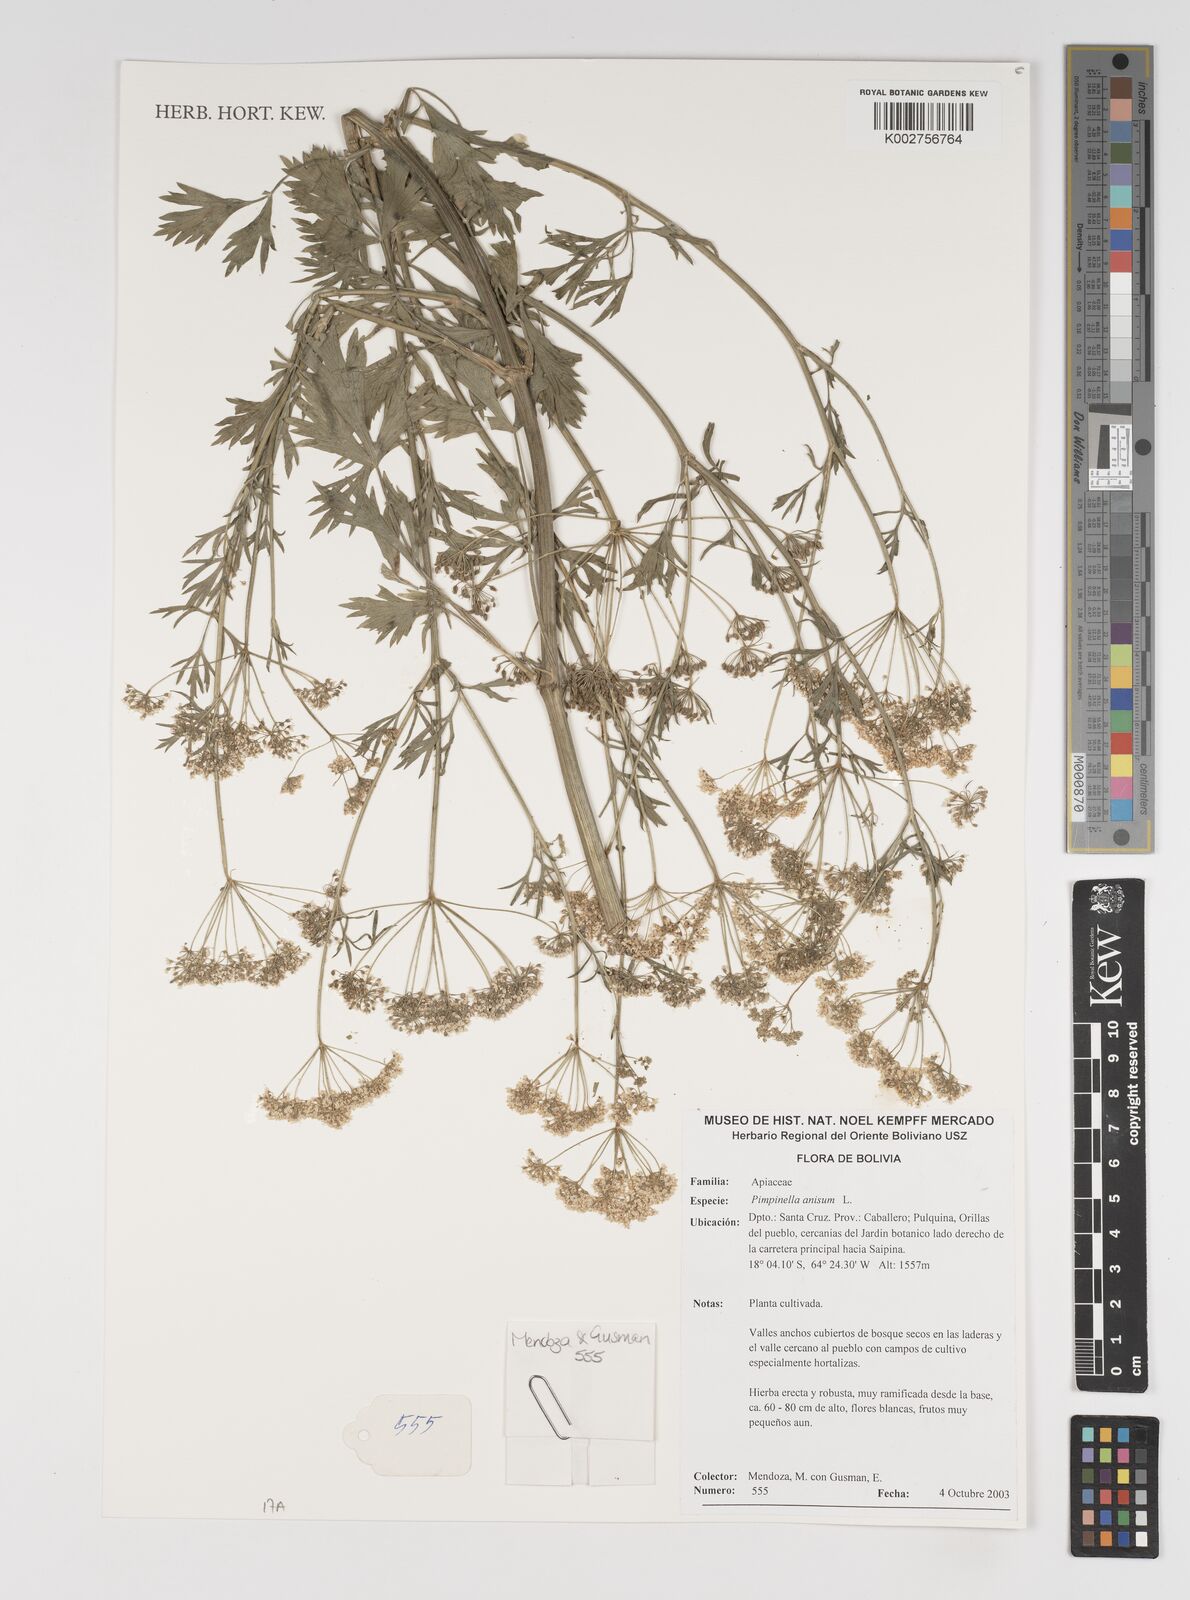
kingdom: Plantae
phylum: Tracheophyta
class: Magnoliopsida
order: Apiales
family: Apiaceae
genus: Pimpinella
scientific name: Pimpinella anisum
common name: Anise burnet saxifrage
